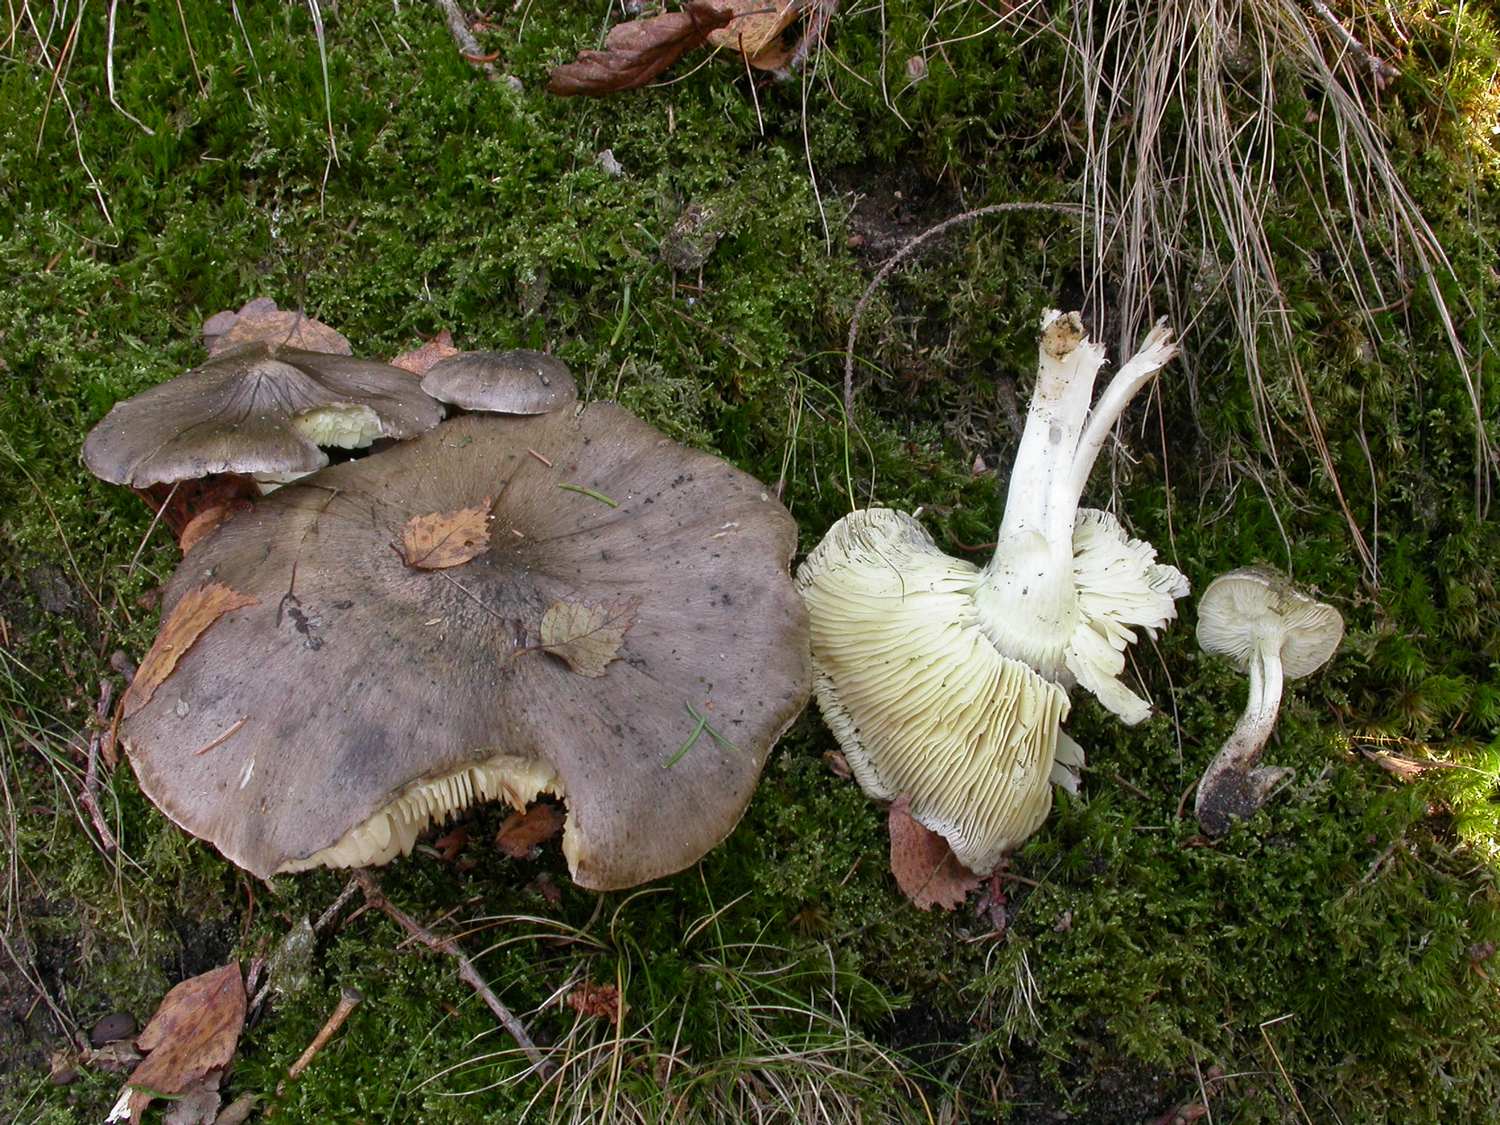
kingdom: Fungi
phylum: Basidiomycota
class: Agaricomycetes
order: Agaricales
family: Tricholomataceae
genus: Tricholoma
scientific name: Tricholoma portentosum
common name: grå ridderhat
